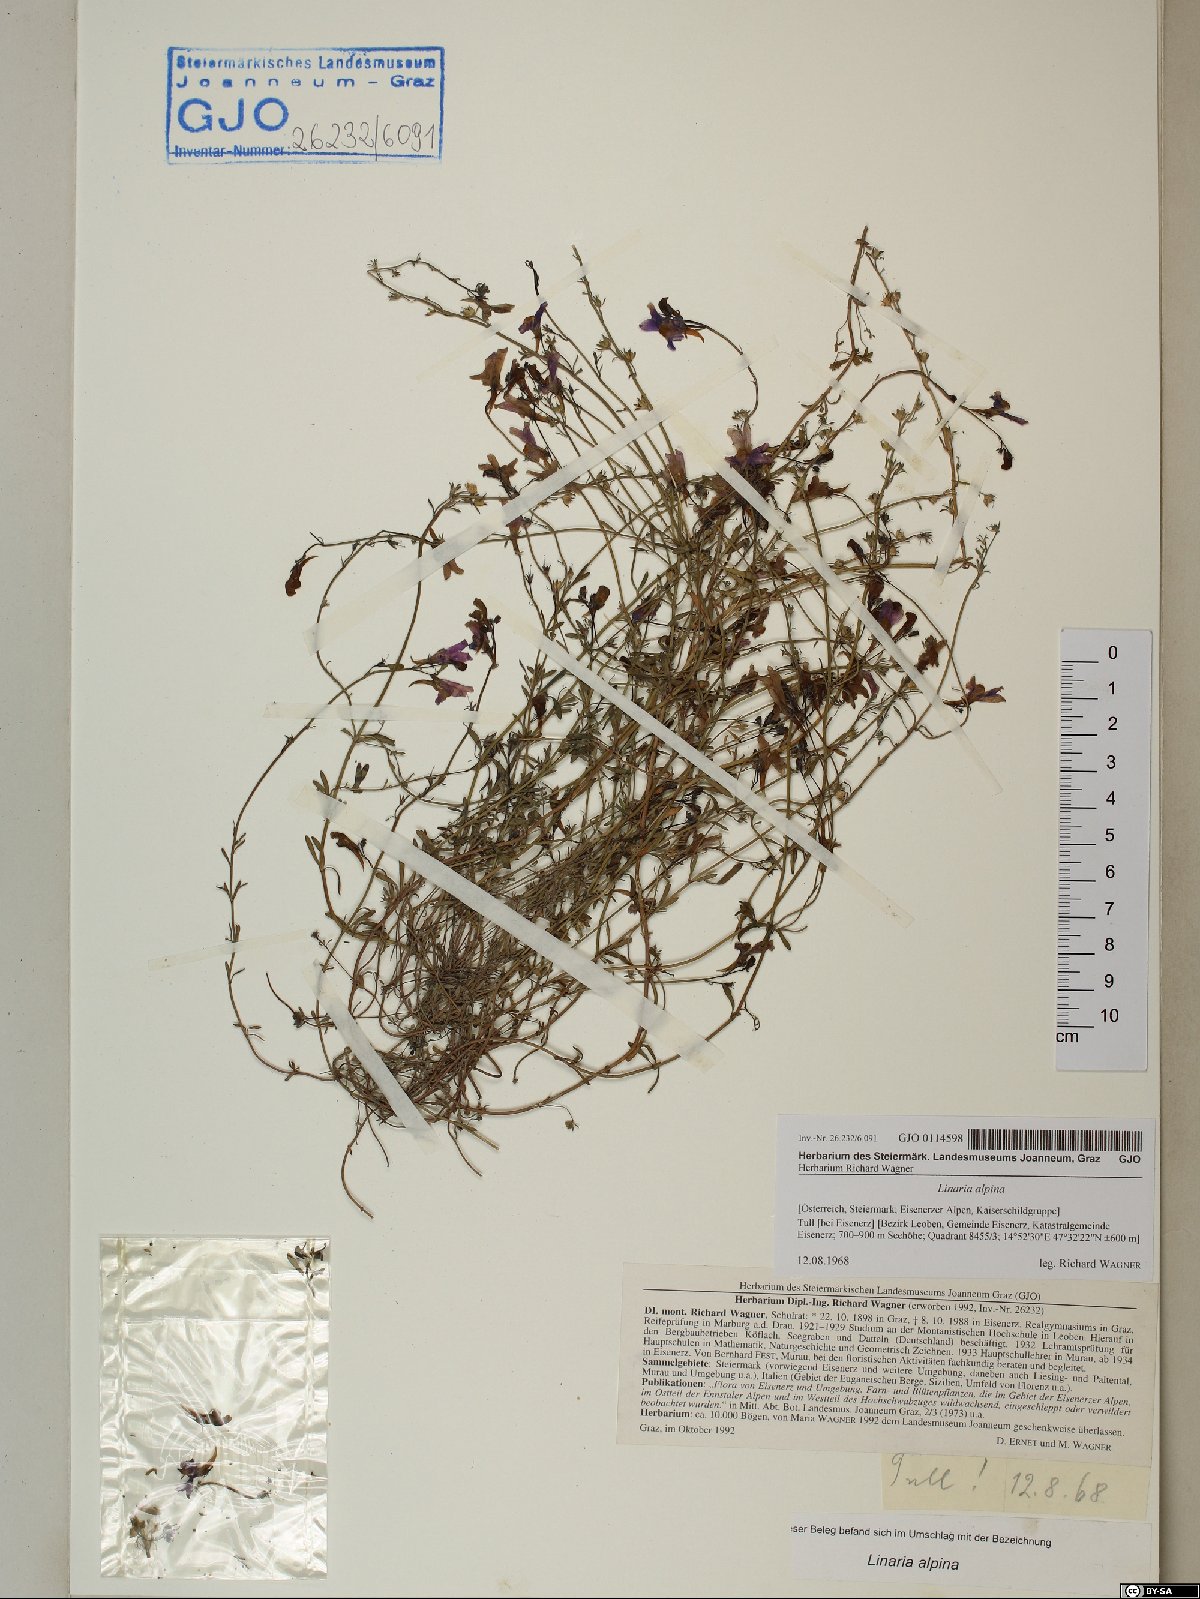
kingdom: Plantae
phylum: Tracheophyta
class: Magnoliopsida
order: Lamiales
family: Plantaginaceae
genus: Linaria
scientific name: Linaria alpina
